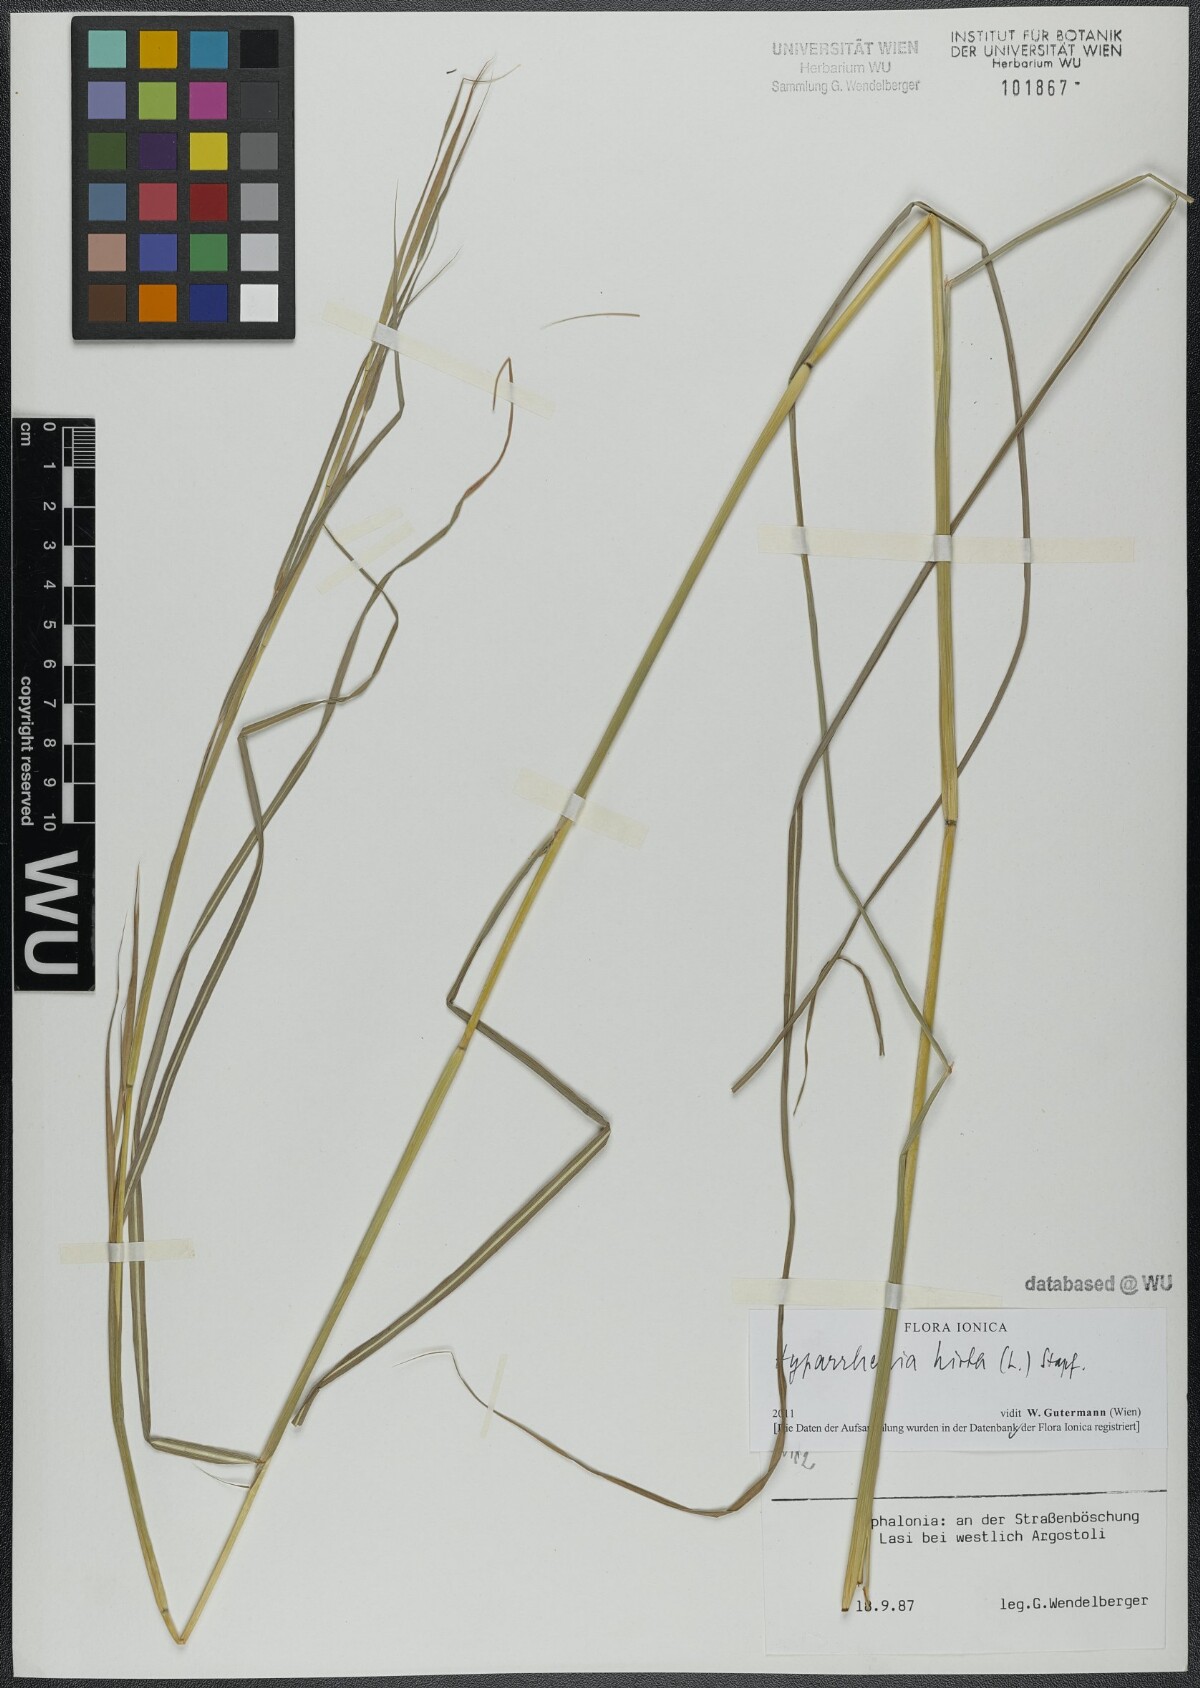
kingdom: Plantae
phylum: Tracheophyta
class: Liliopsida
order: Poales
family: Poaceae
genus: Hyparrhenia
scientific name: Hyparrhenia hirta
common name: Thatching grass
